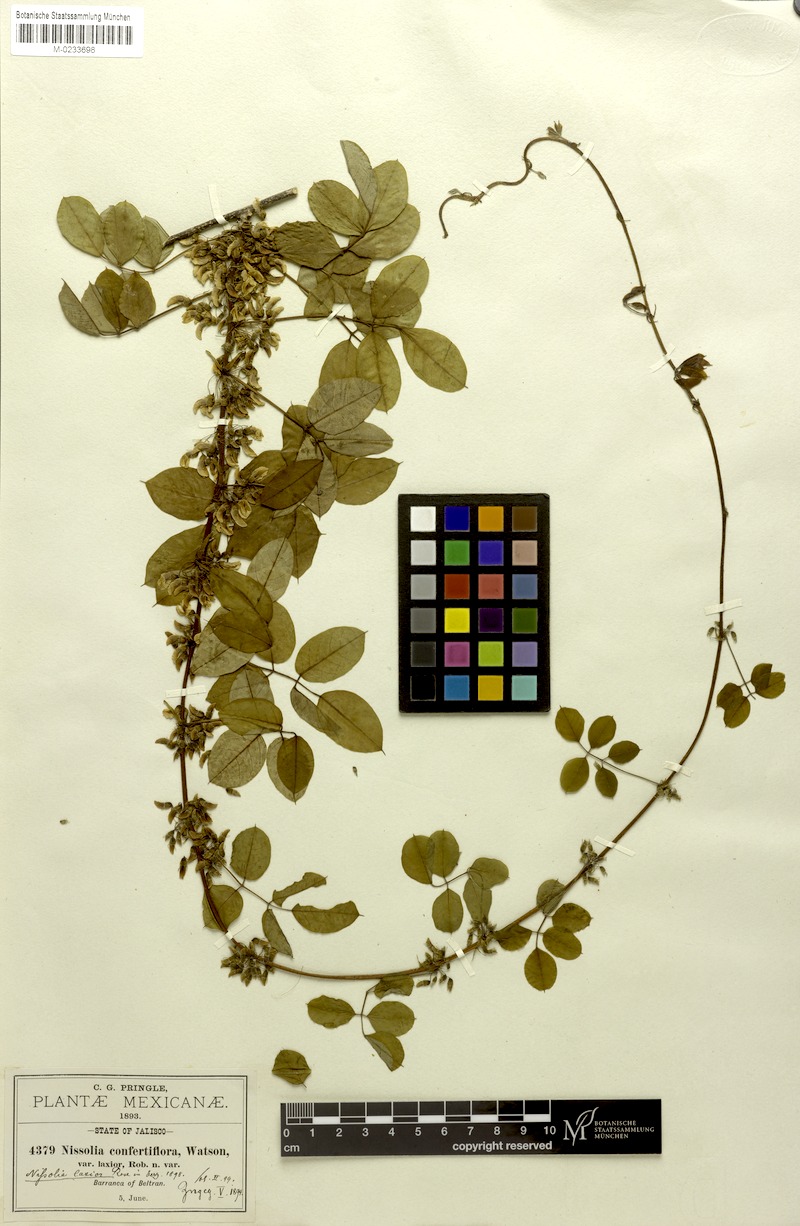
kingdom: Plantae
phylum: Tracheophyta
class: Magnoliopsida
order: Fabales
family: Fabaceae
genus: Nissolia
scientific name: Nissolia laxior
